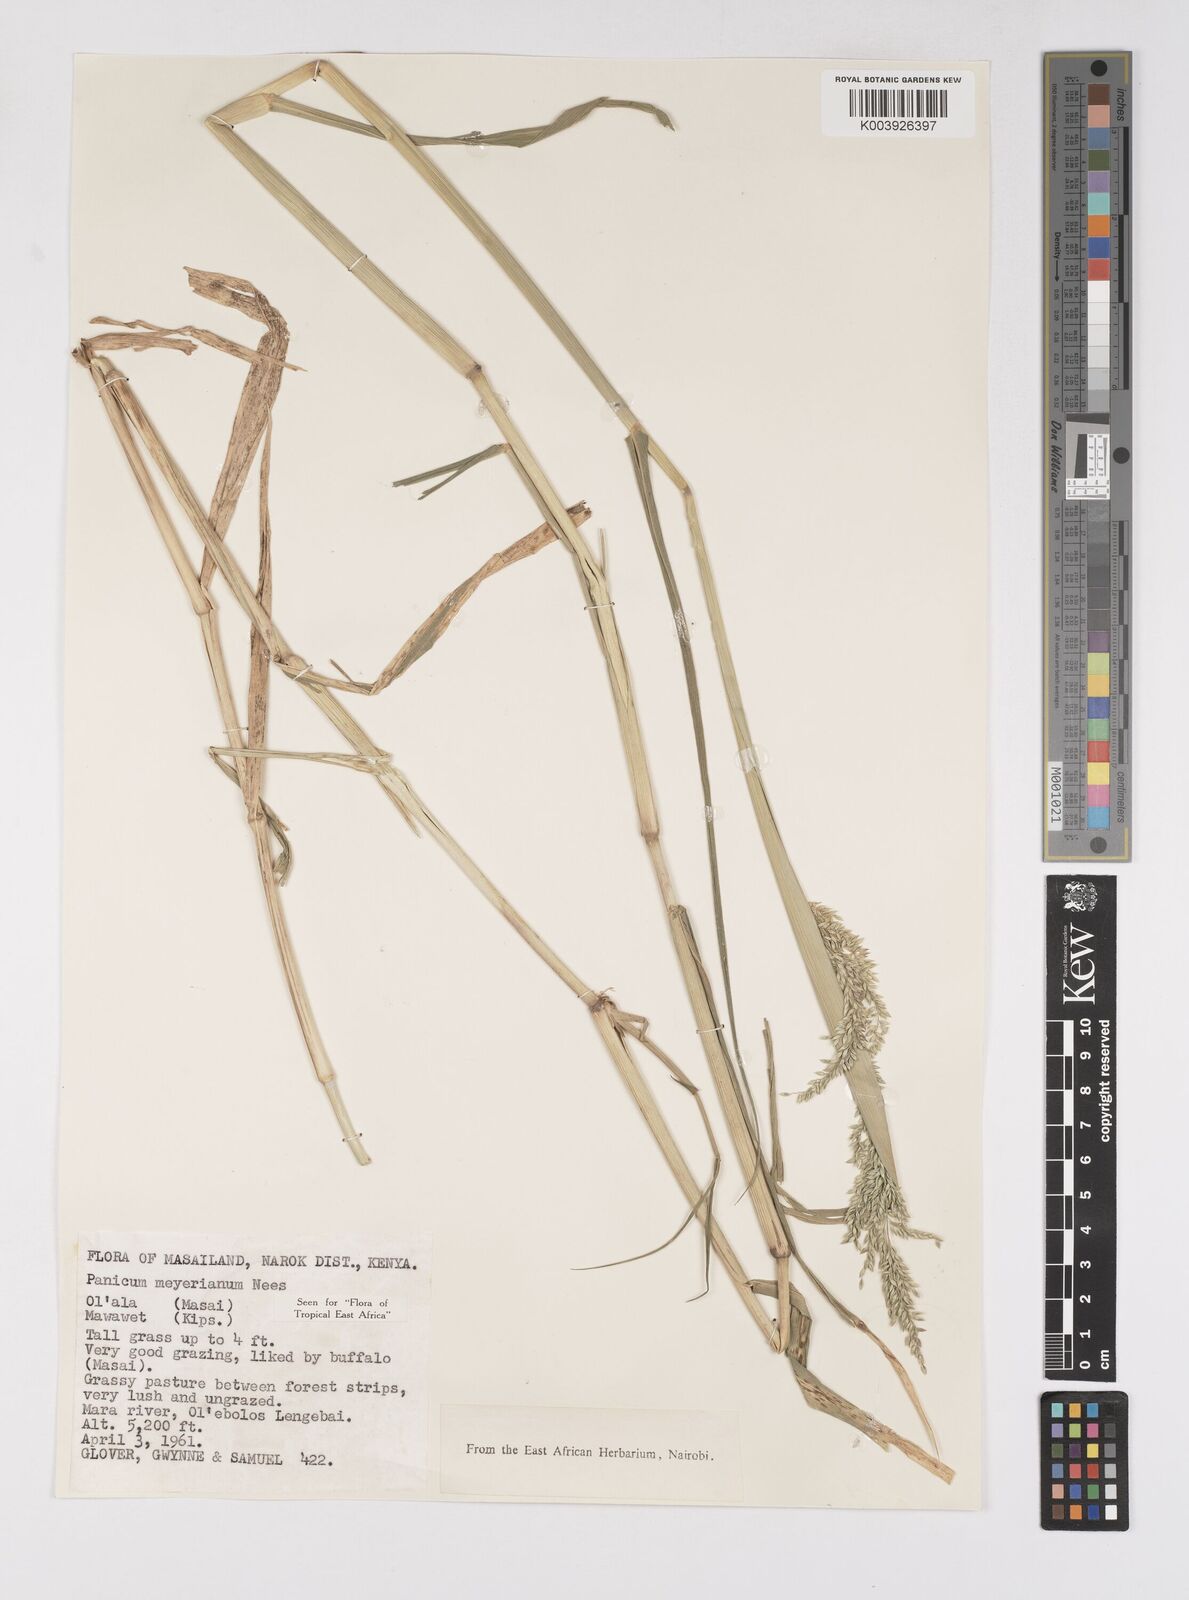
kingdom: Plantae
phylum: Tracheophyta
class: Liliopsida
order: Poales
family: Poaceae
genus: Eriochloa
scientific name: Eriochloa meyeriana
